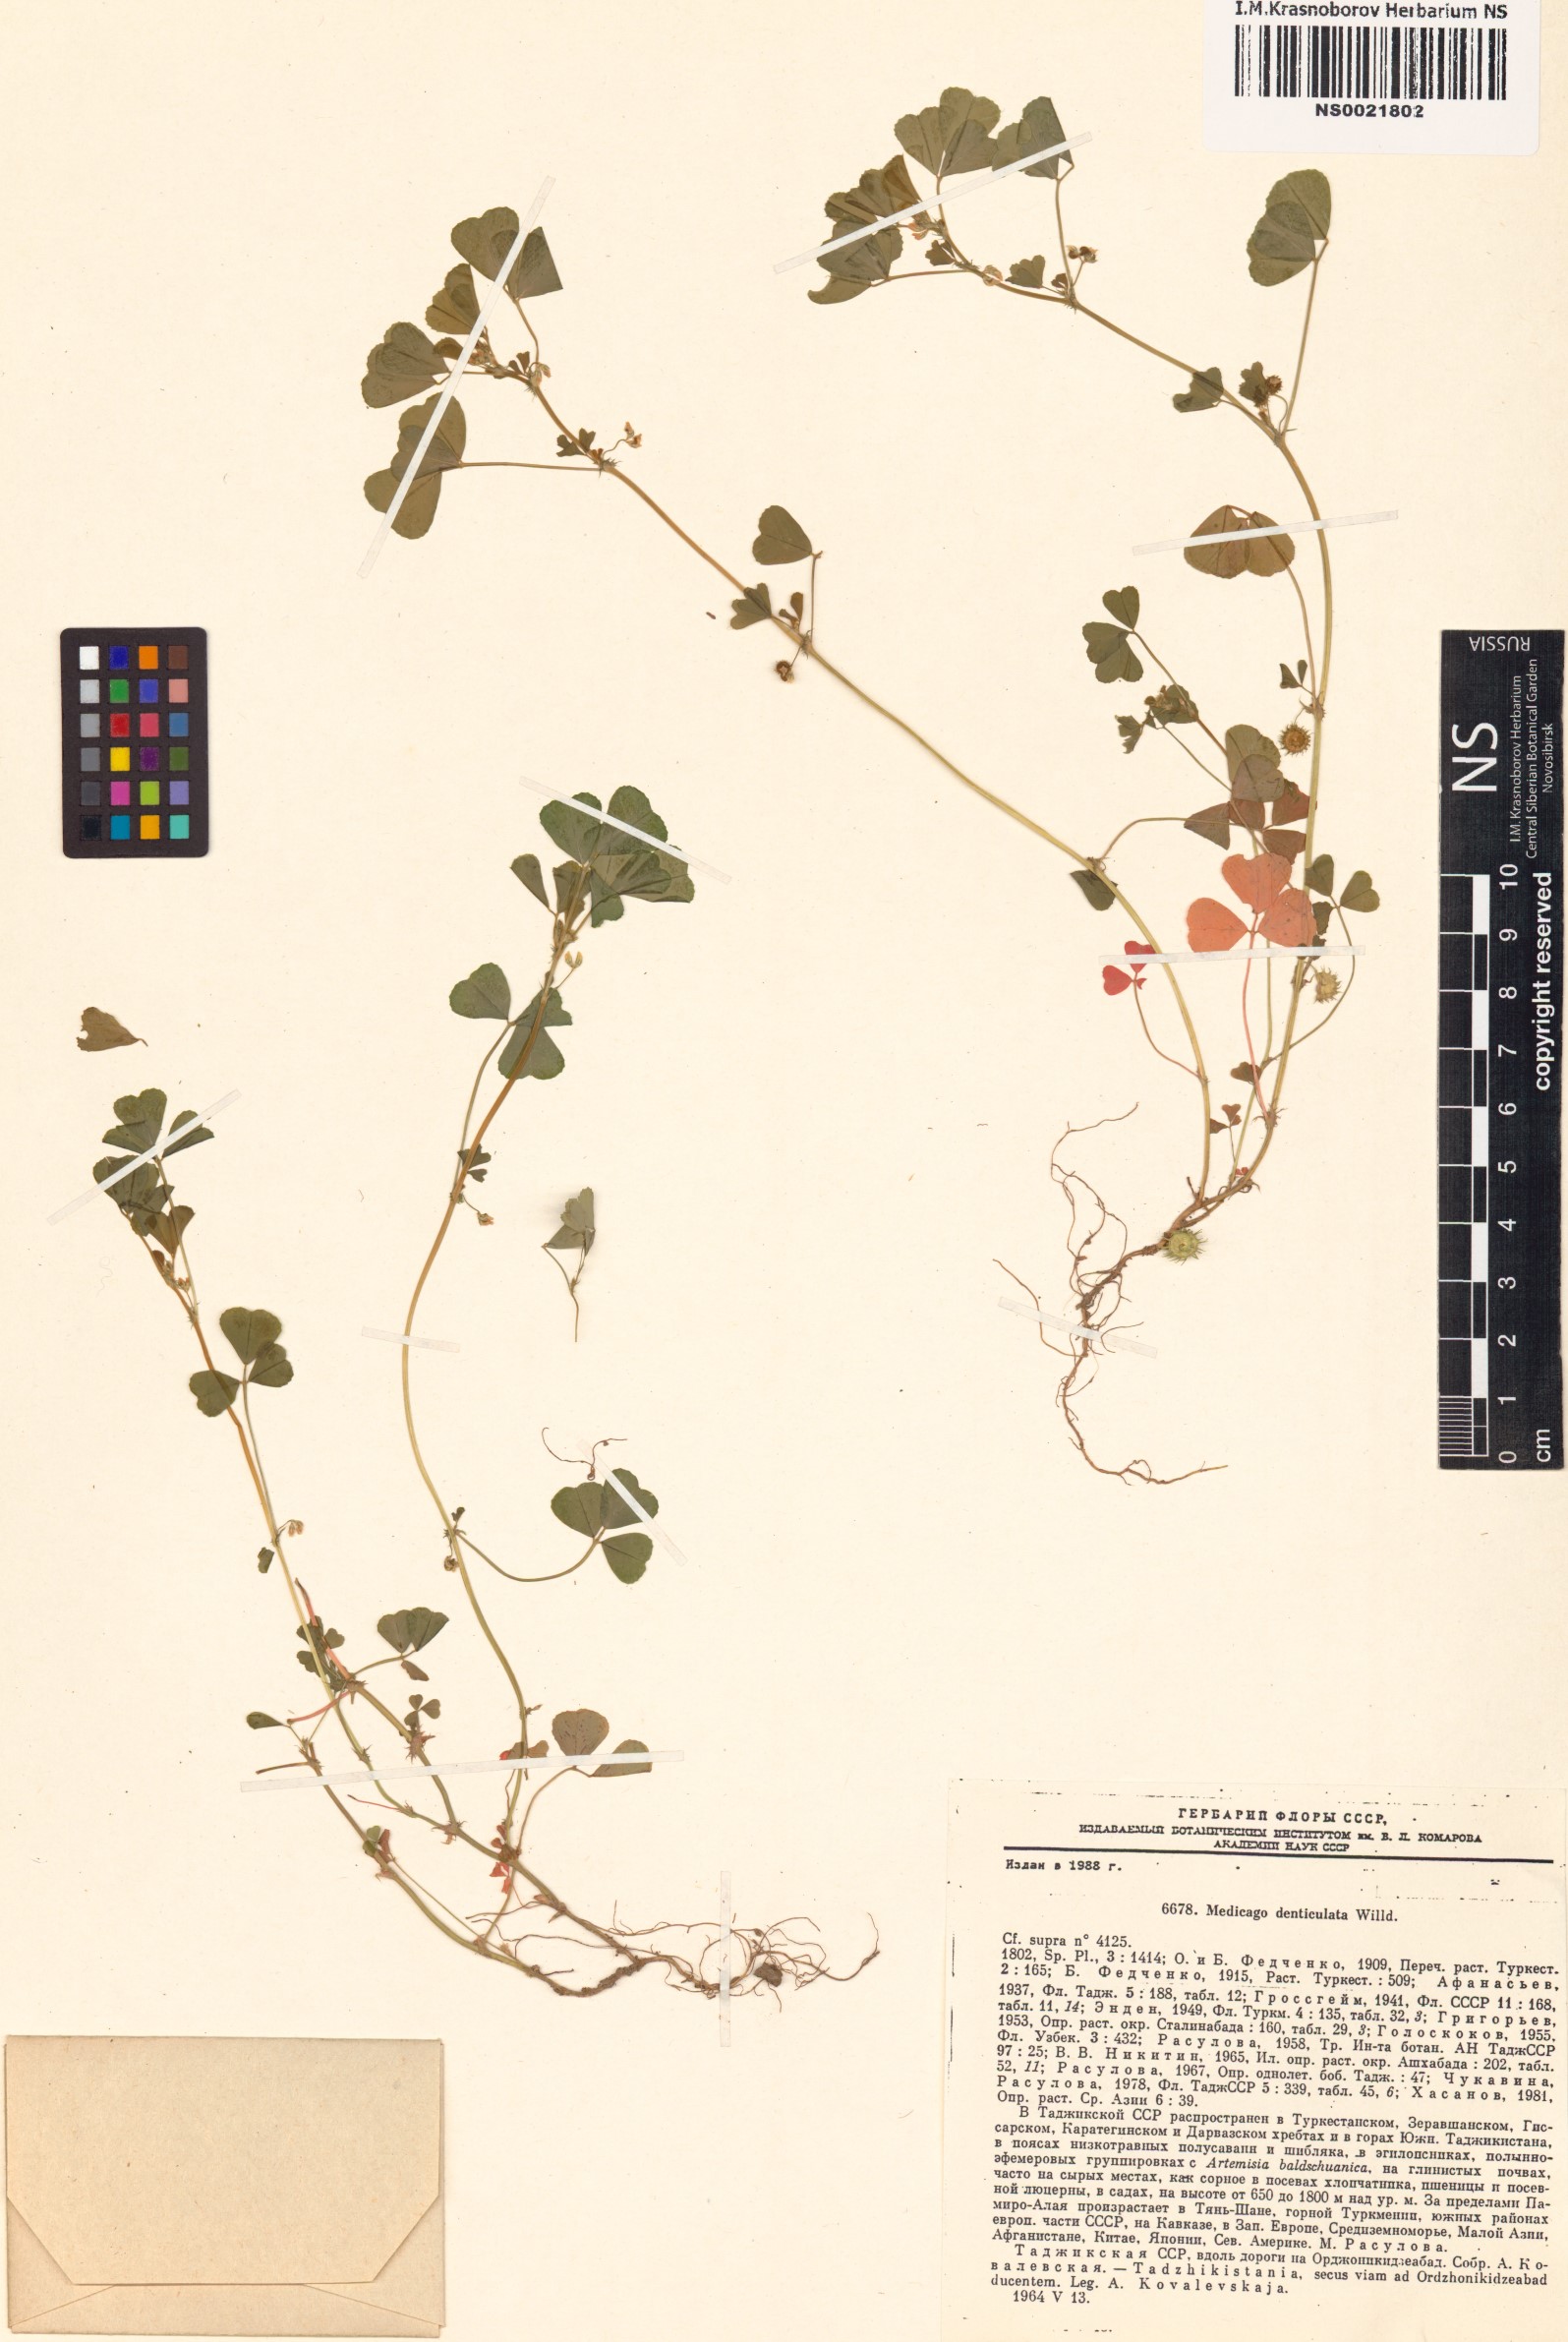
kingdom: Plantae
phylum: Tracheophyta
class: Magnoliopsida
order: Fabales
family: Fabaceae
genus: Medicago
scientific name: Medicago polymorpha
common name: Burclover
